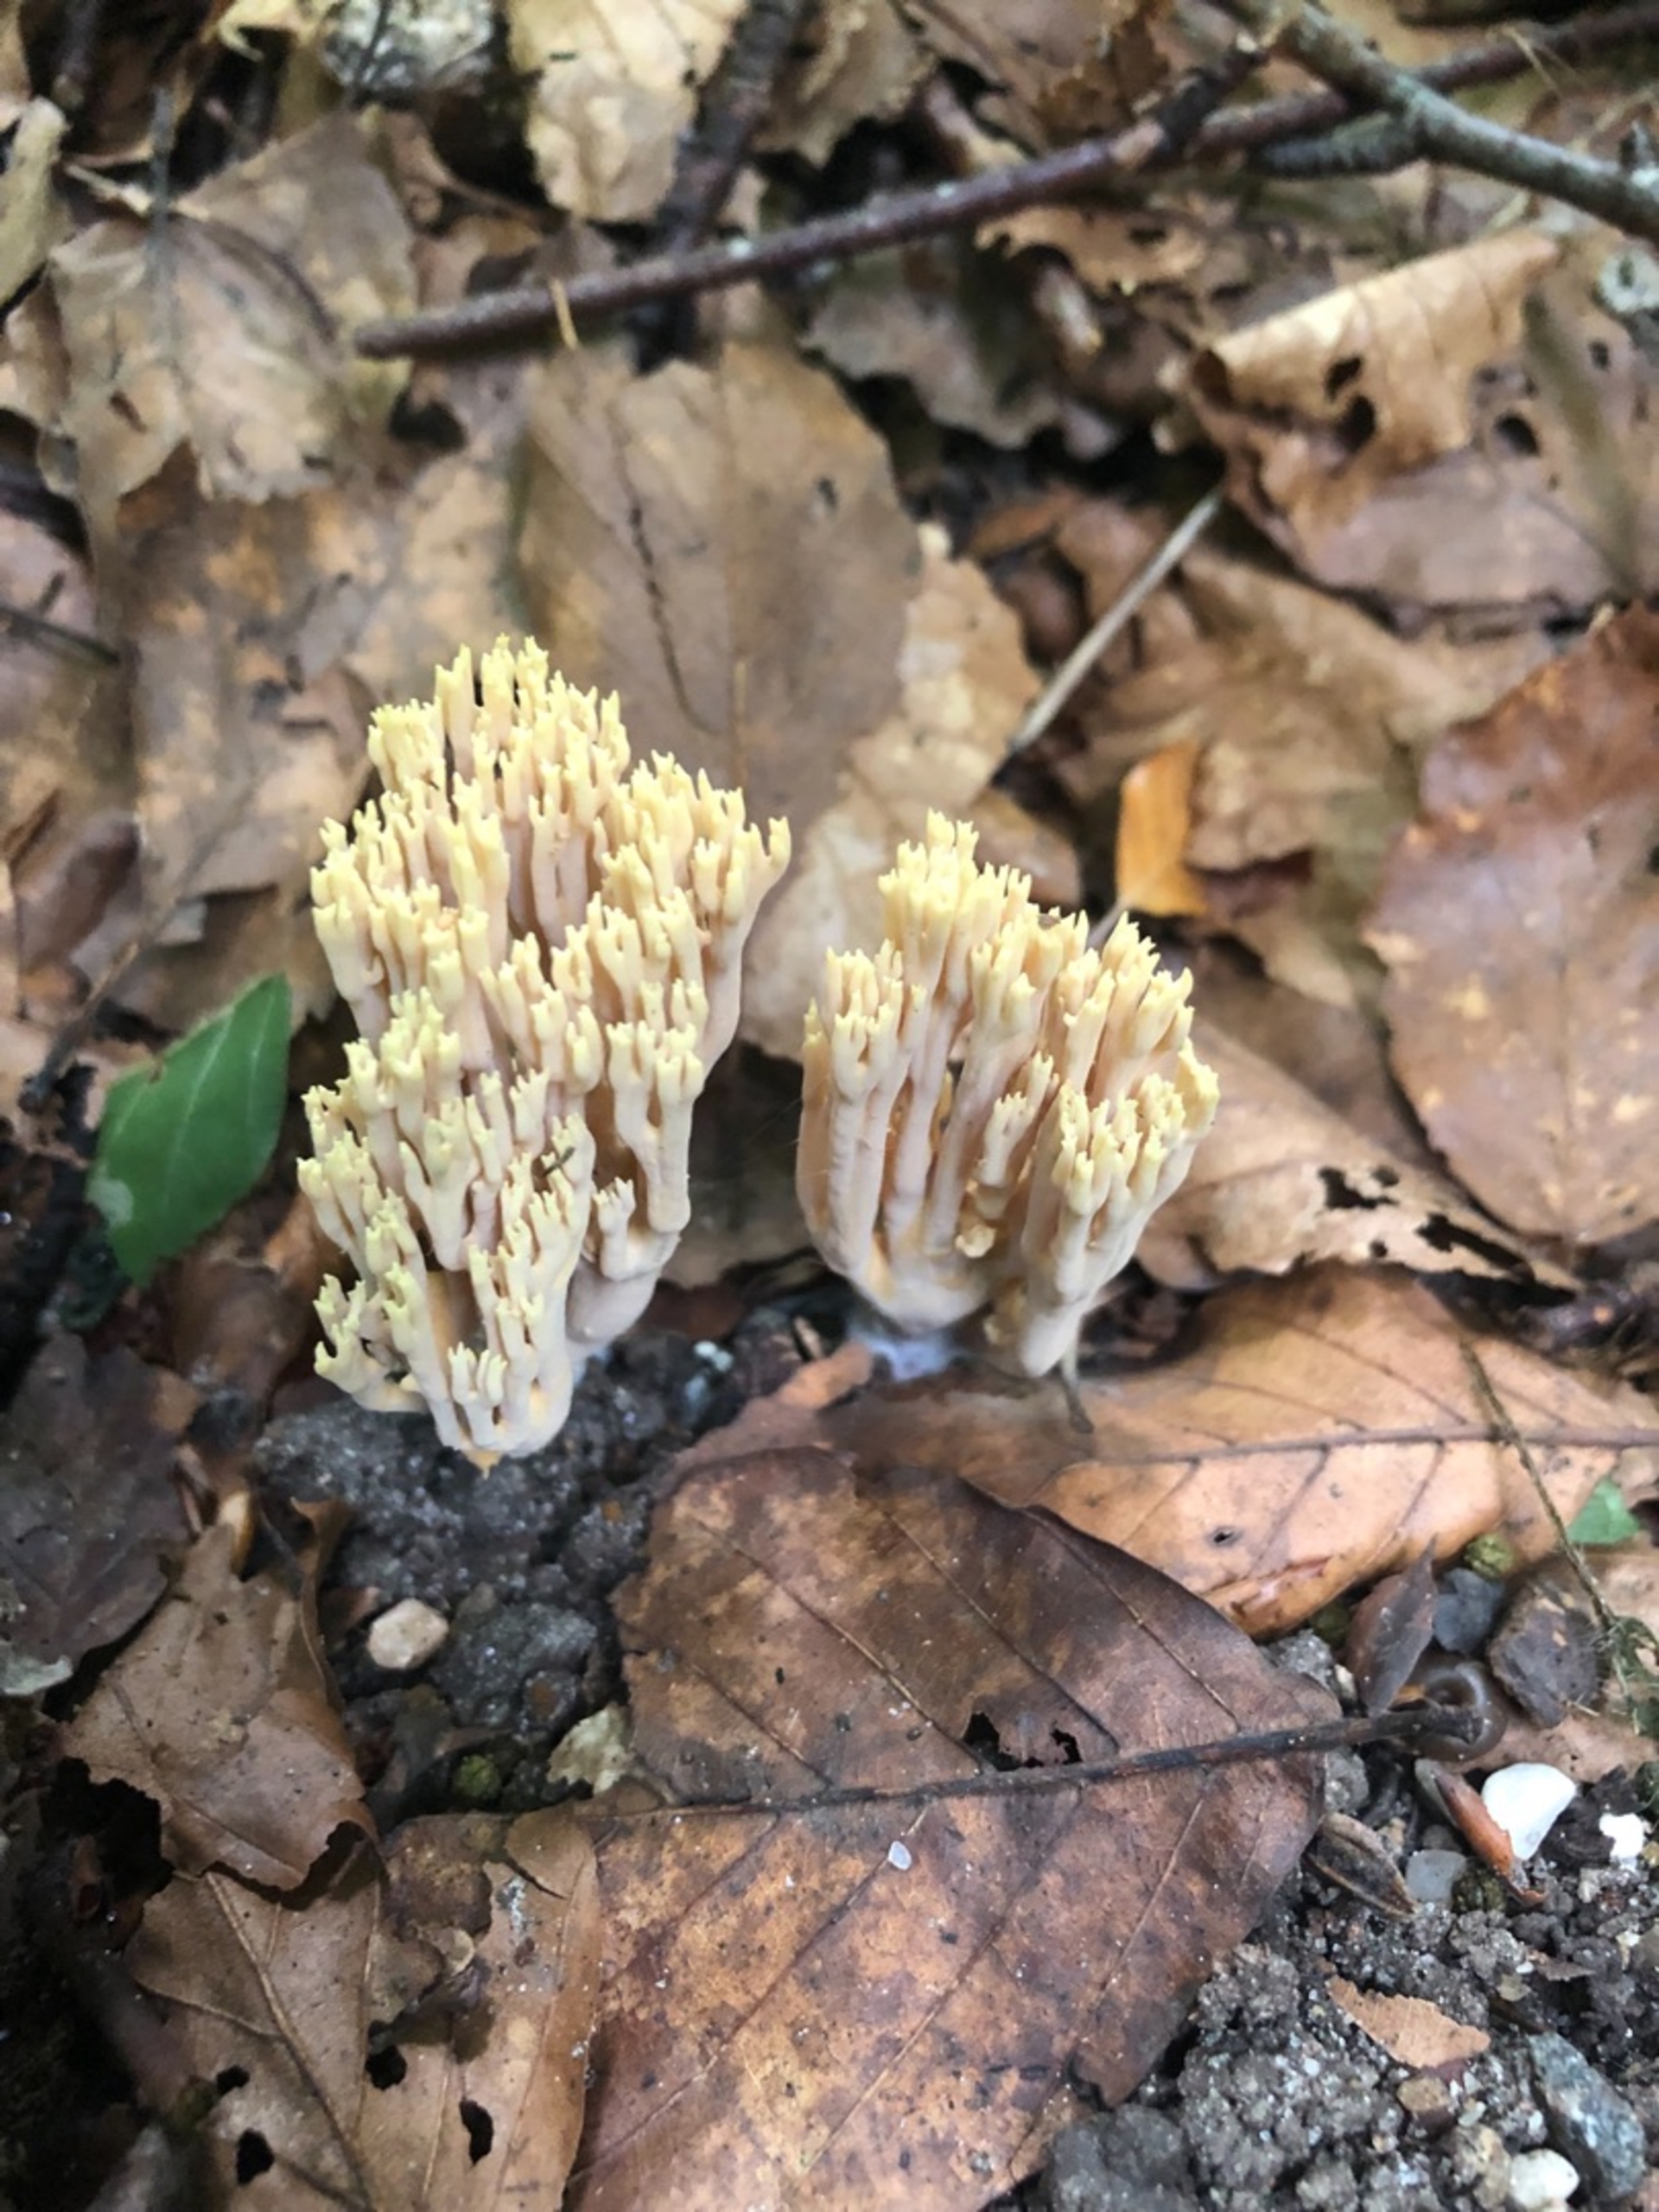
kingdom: Fungi
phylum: Basidiomycota
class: Agaricomycetes
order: Gomphales
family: Gomphaceae
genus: Ramaria
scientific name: Ramaria
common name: Koralsvamp
